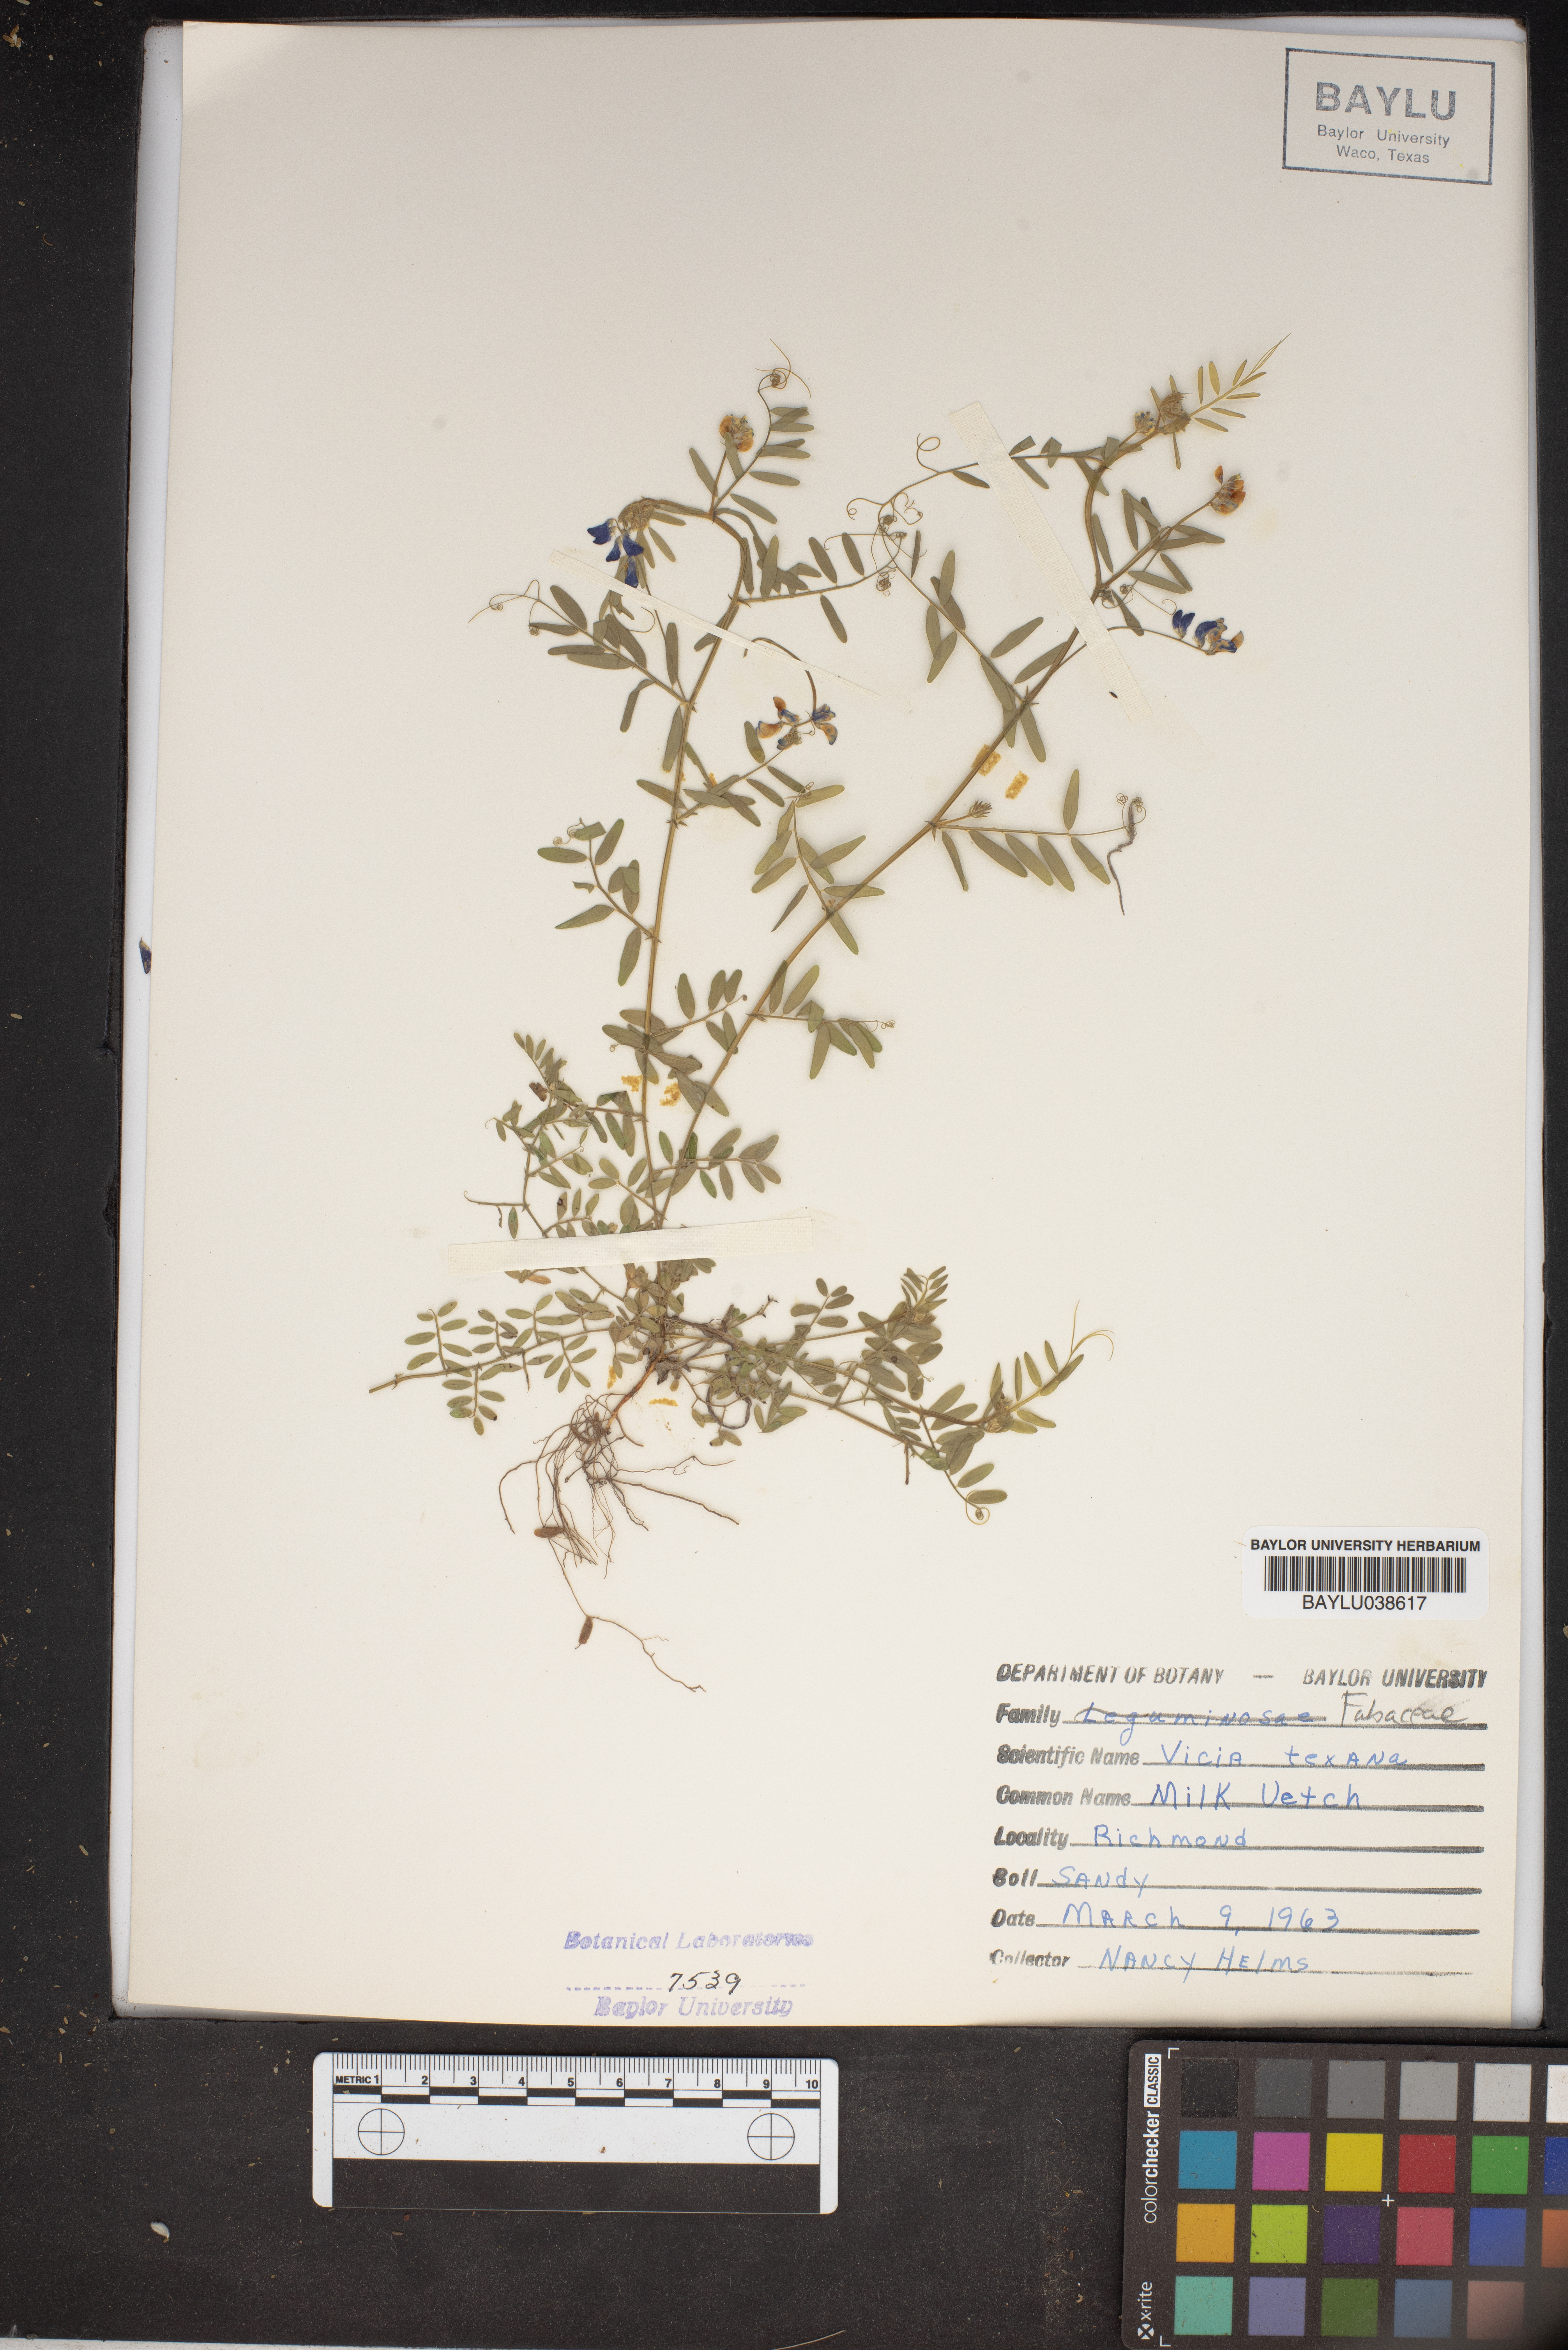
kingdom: Plantae
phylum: Tracheophyta
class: Magnoliopsida
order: Fabales
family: Fabaceae
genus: Vicia
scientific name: Vicia ludoviciana
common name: Louisiana vetch
